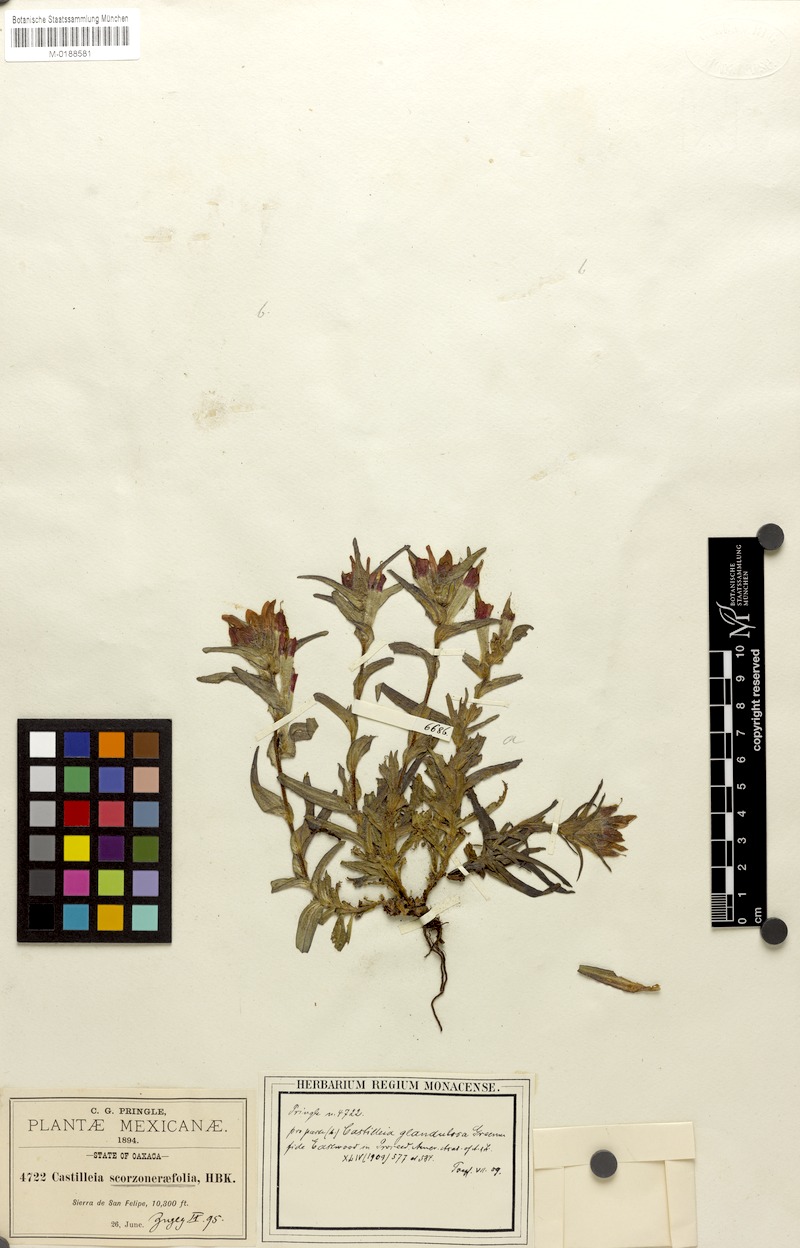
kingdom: Plantae
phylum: Tracheophyta
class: Magnoliopsida
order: Lamiales
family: Orobanchaceae
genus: Castilleja
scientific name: Castilleja scorzonerifolia
